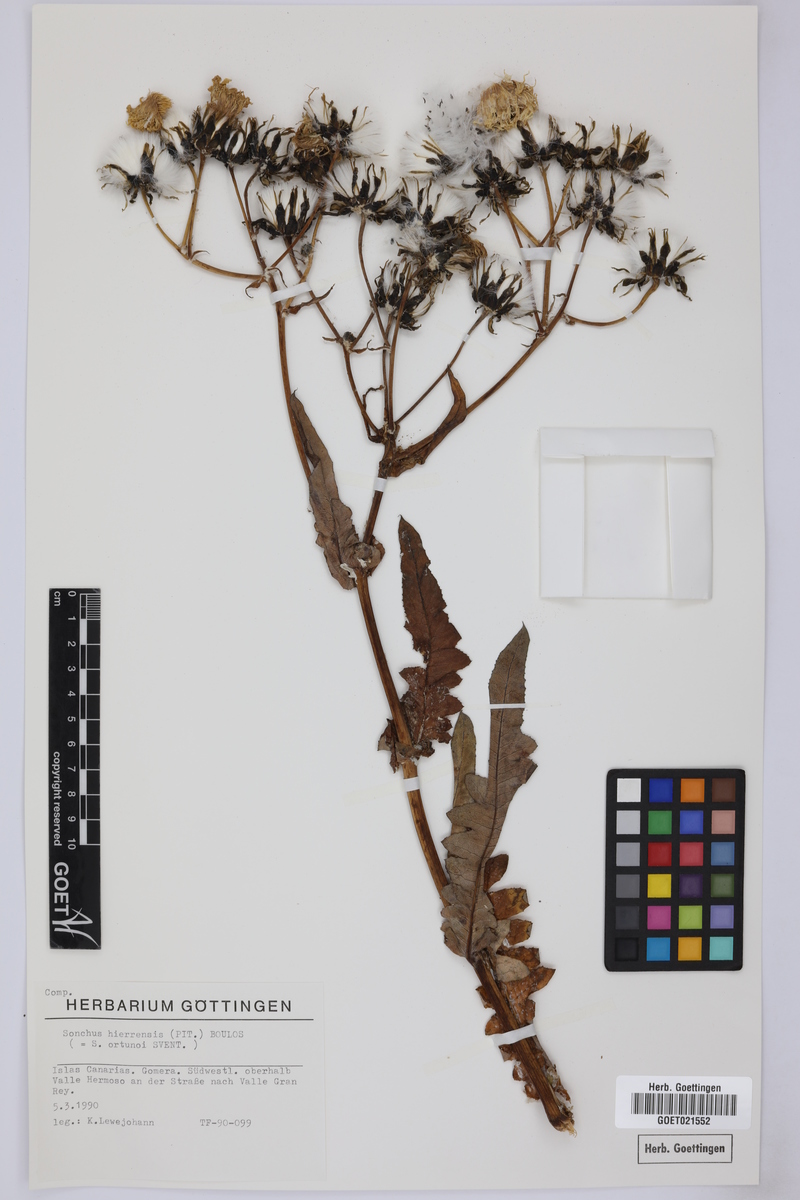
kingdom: Plantae
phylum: Tracheophyta
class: Magnoliopsida
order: Asterales
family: Asteraceae
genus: Sonchus
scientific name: Sonchus hierrensis
